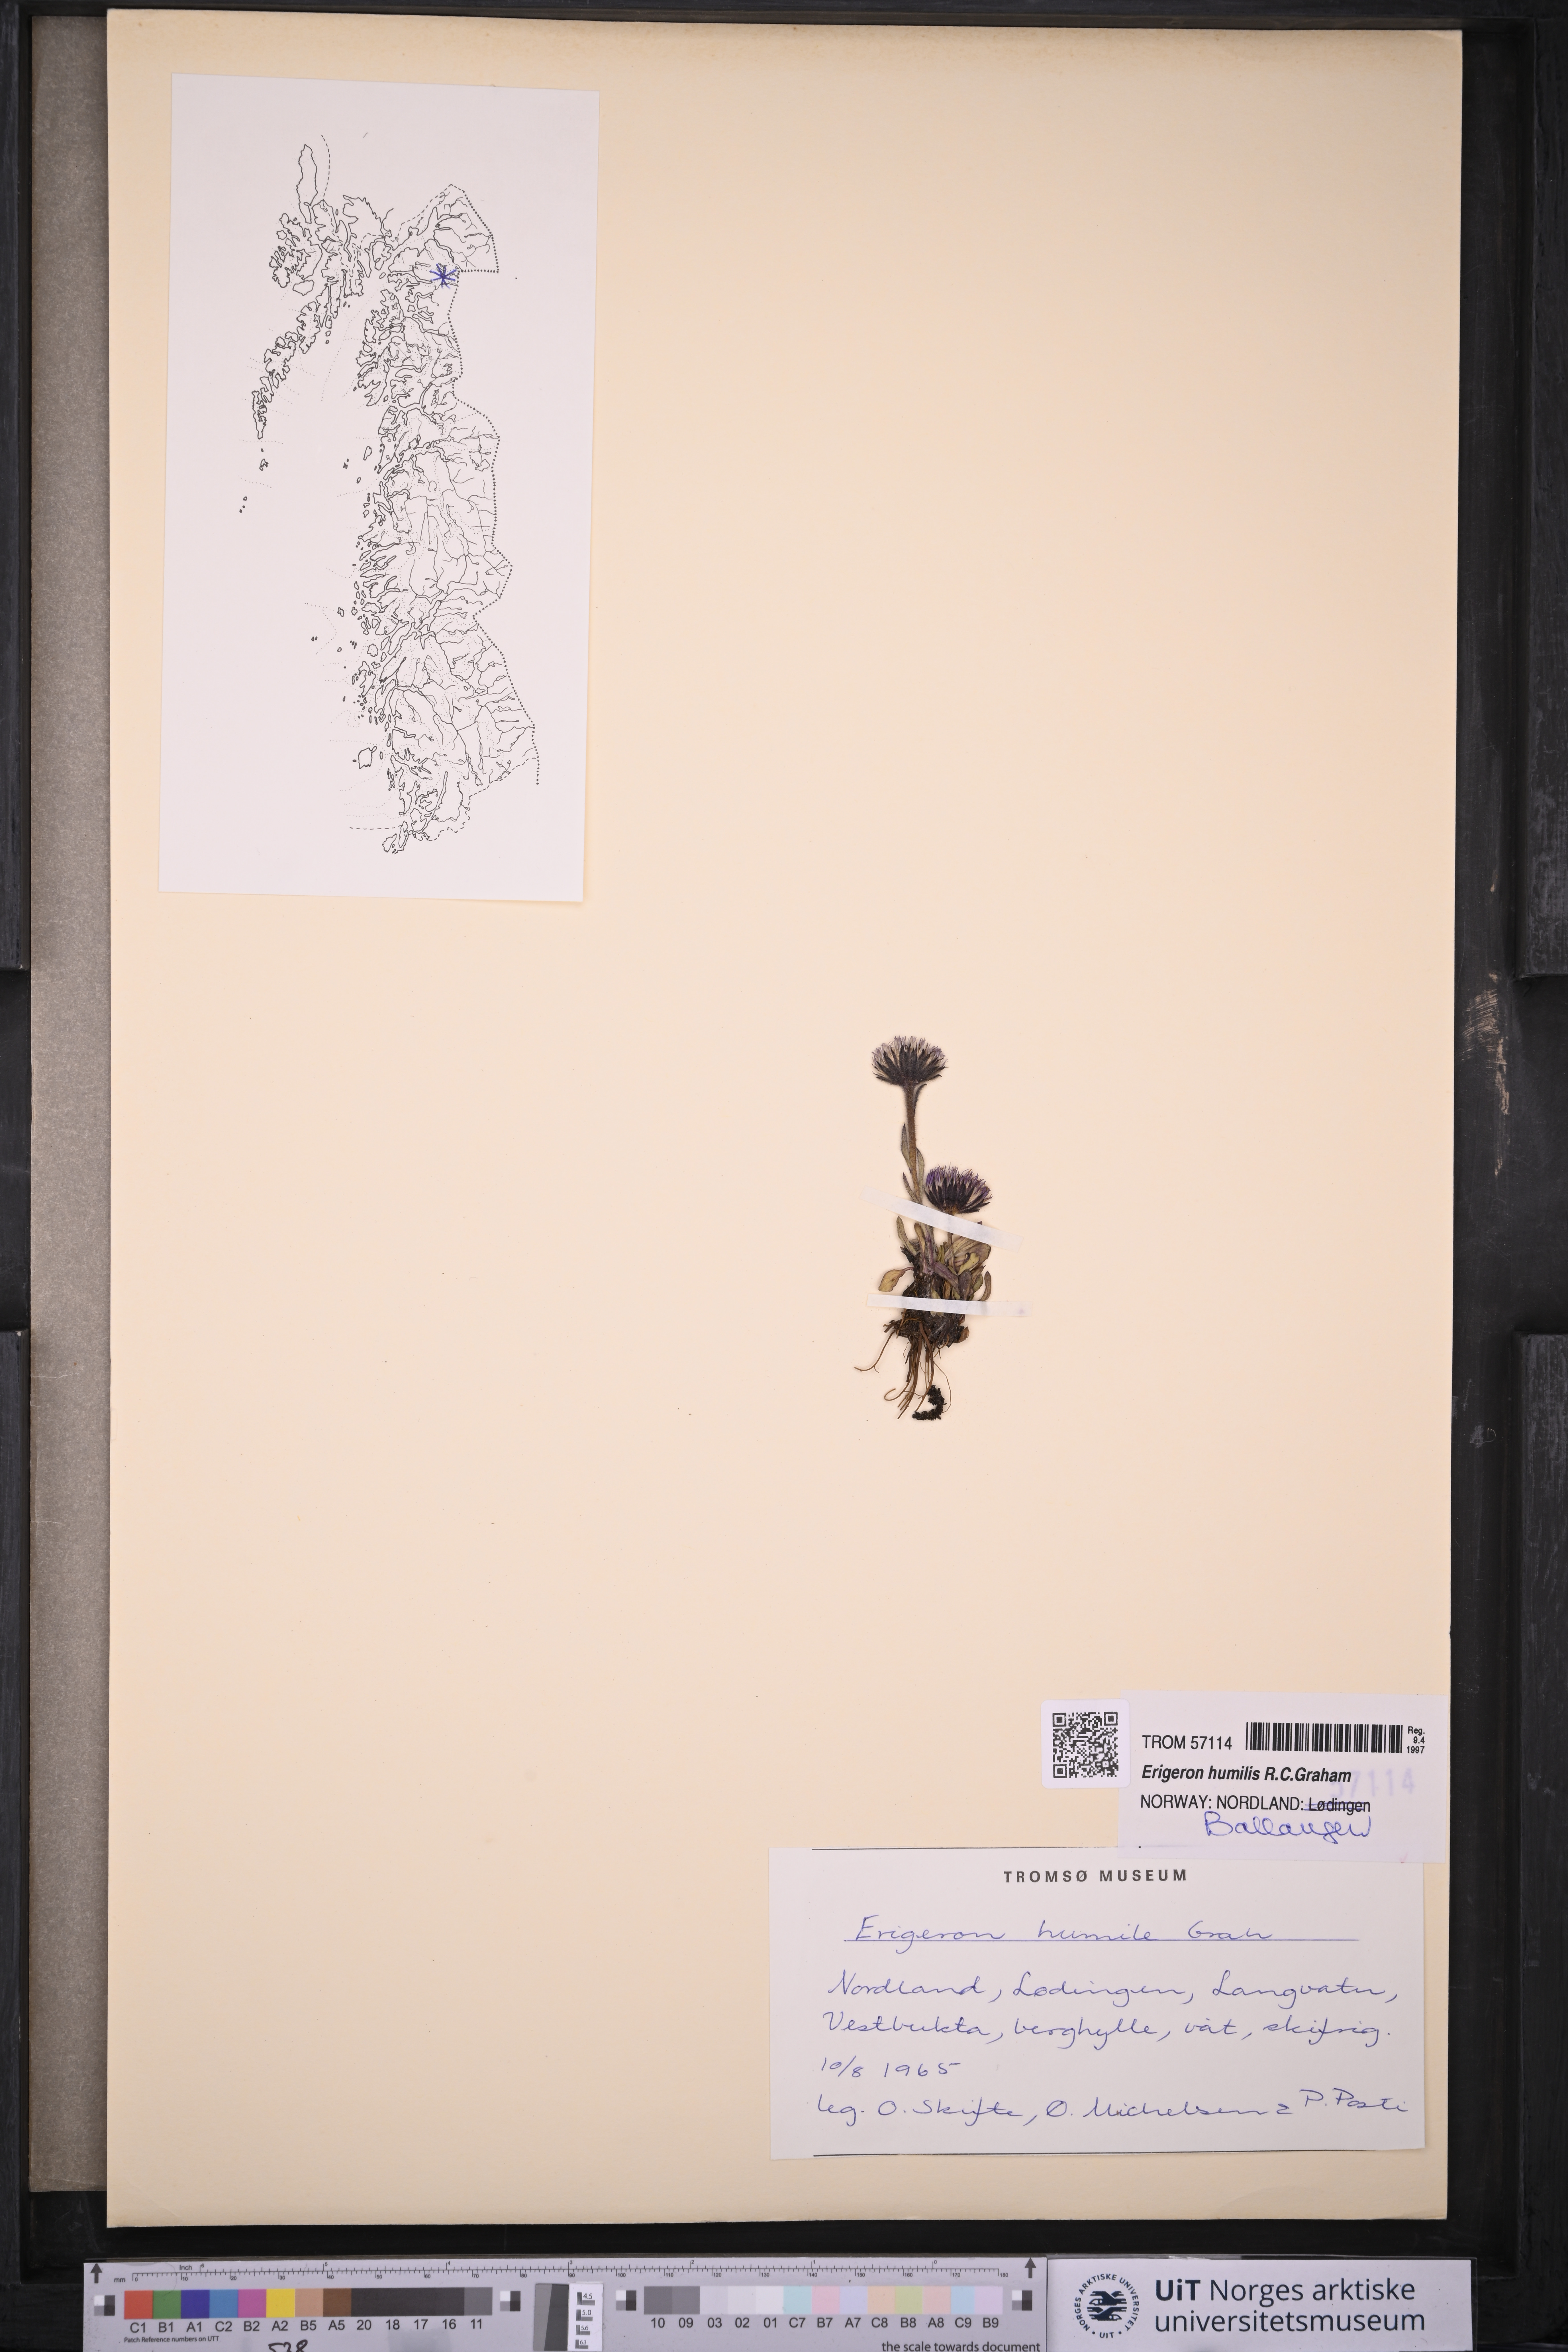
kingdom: Plantae
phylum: Tracheophyta
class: Magnoliopsida
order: Asterales
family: Asteraceae
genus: Erigeron
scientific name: Erigeron humilis
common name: Arctic-alpine fleabane
